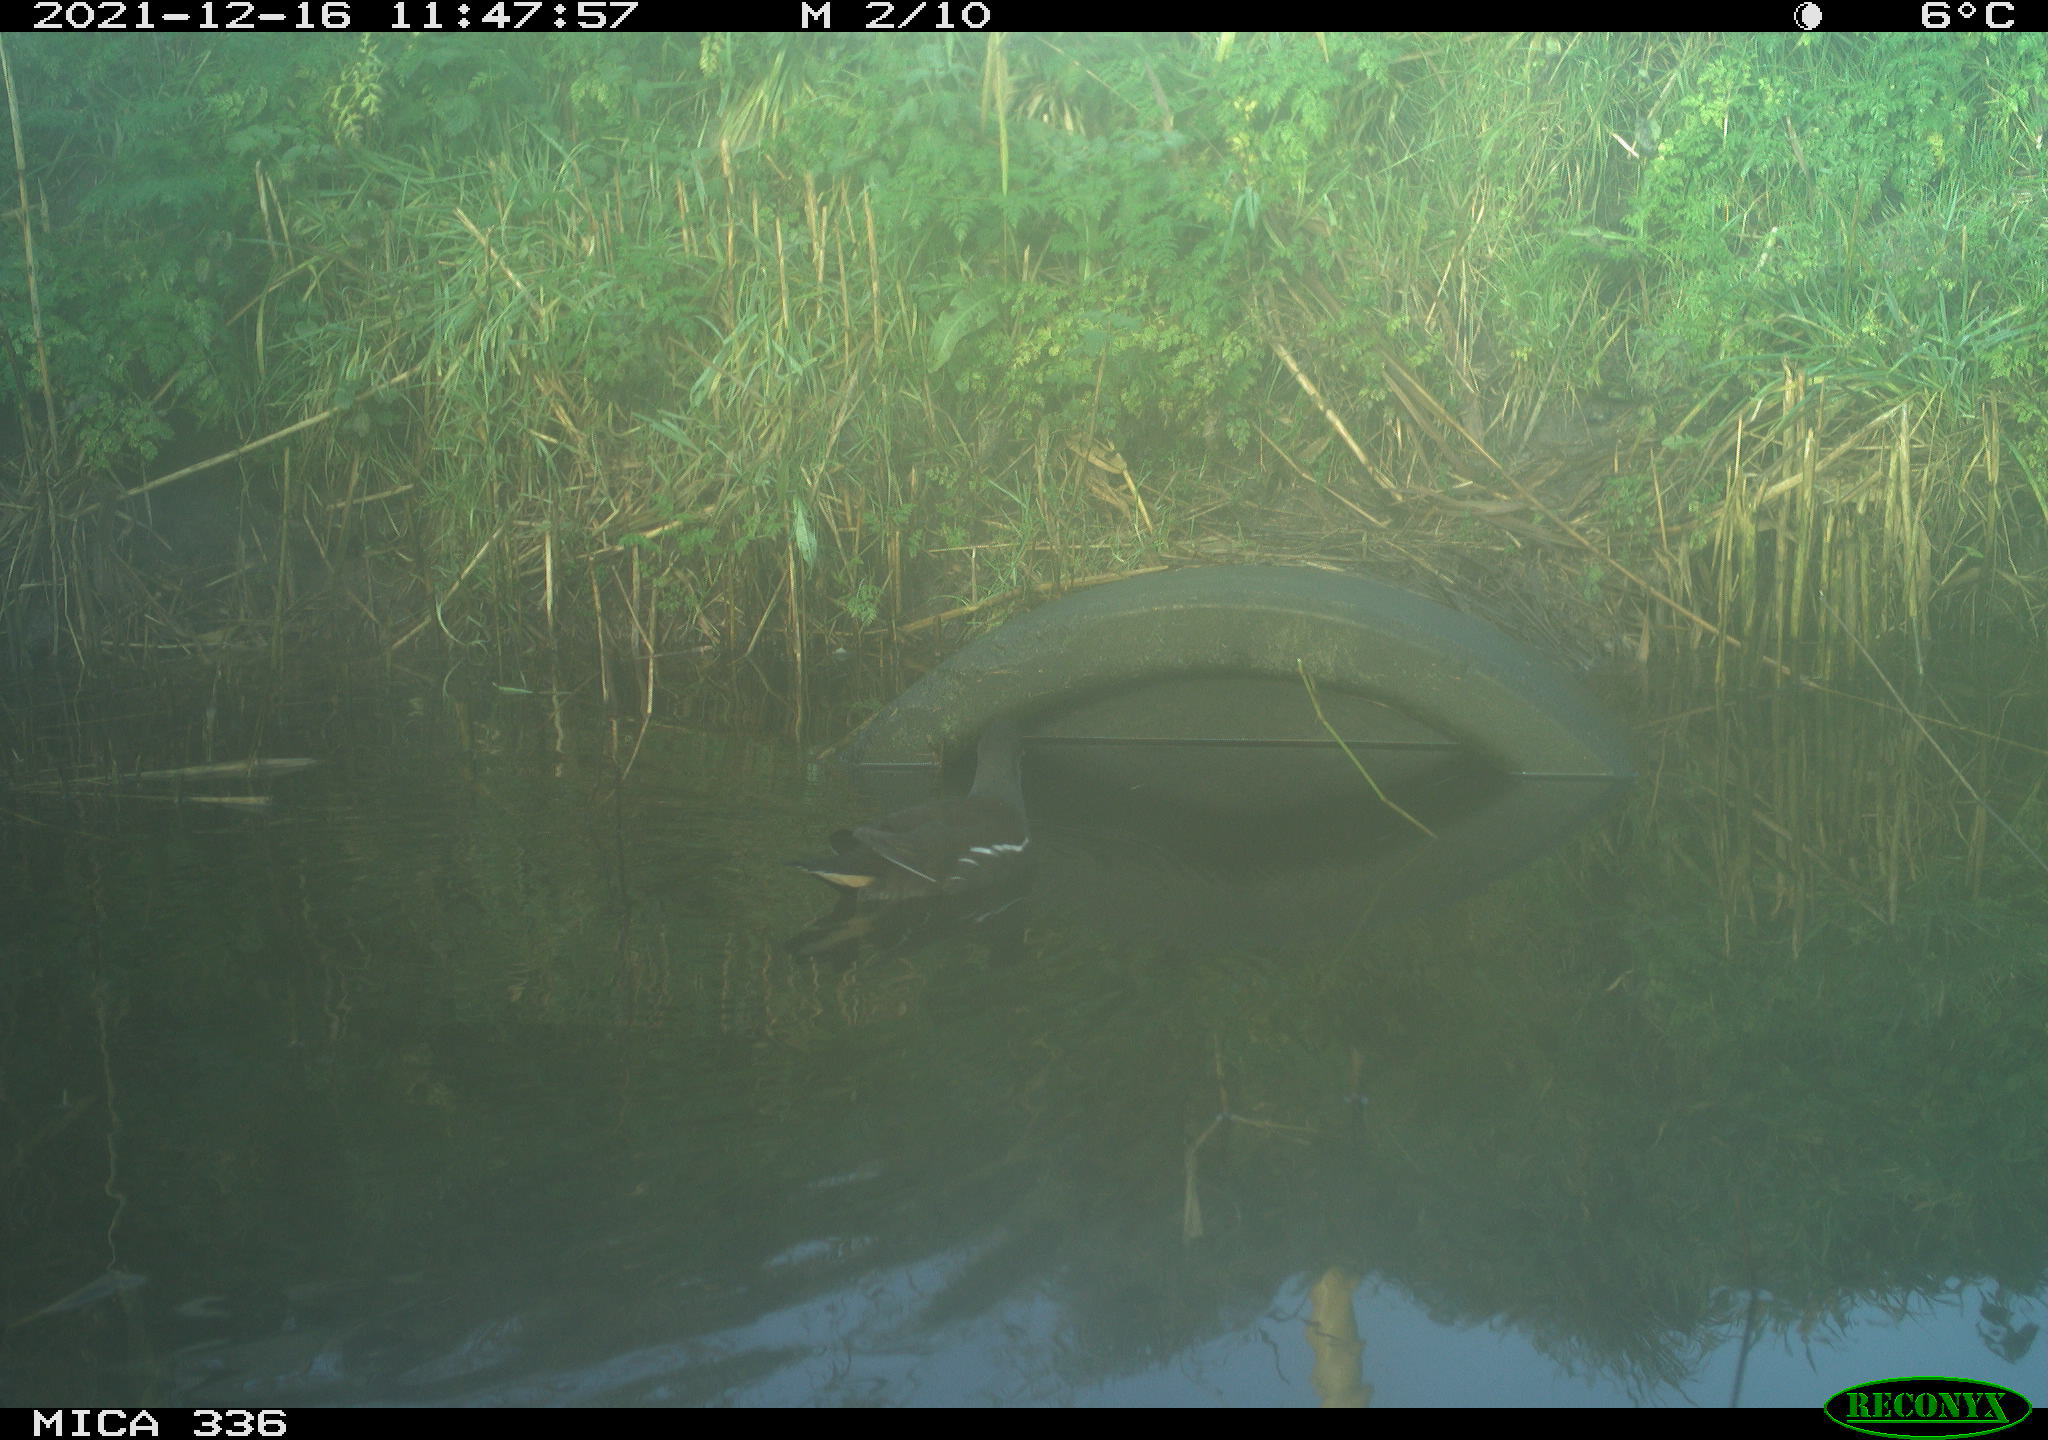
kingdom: Animalia
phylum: Chordata
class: Aves
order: Gruiformes
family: Rallidae
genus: Gallinula
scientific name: Gallinula chloropus
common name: Common moorhen
